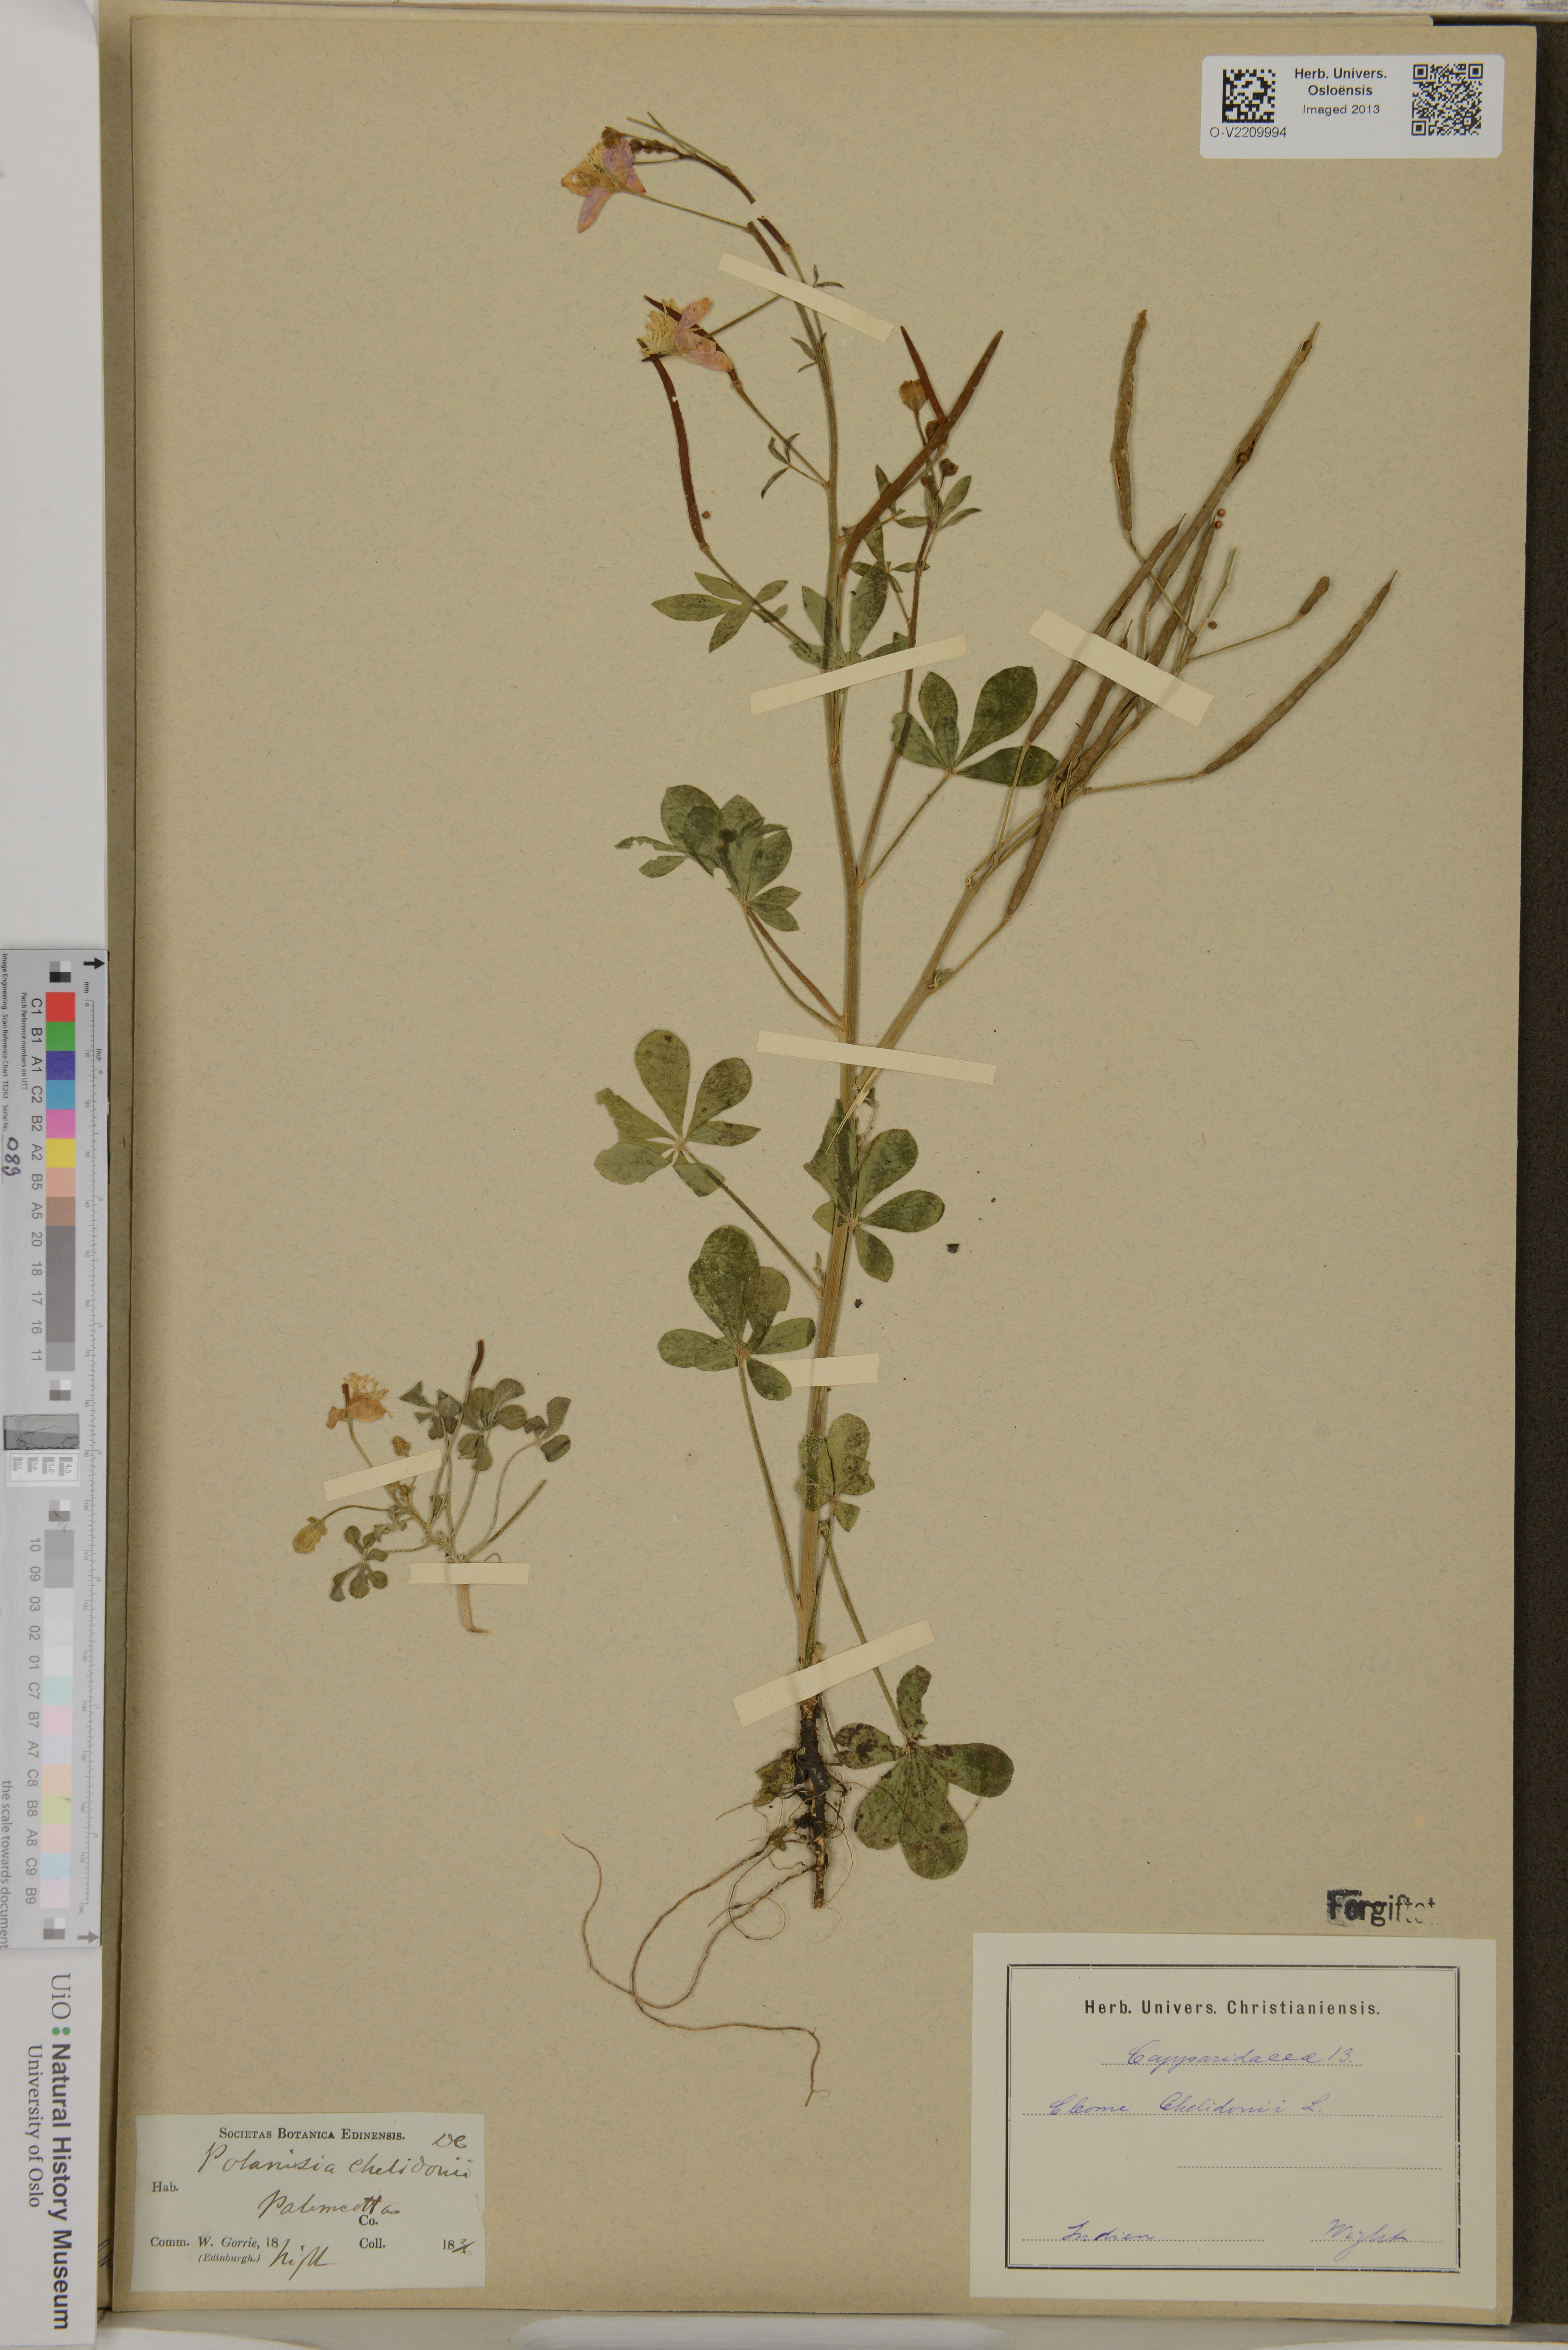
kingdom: Plantae
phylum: Tracheophyta
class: Magnoliopsida
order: Brassicales
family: Cleomaceae
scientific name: Cleomaceae
